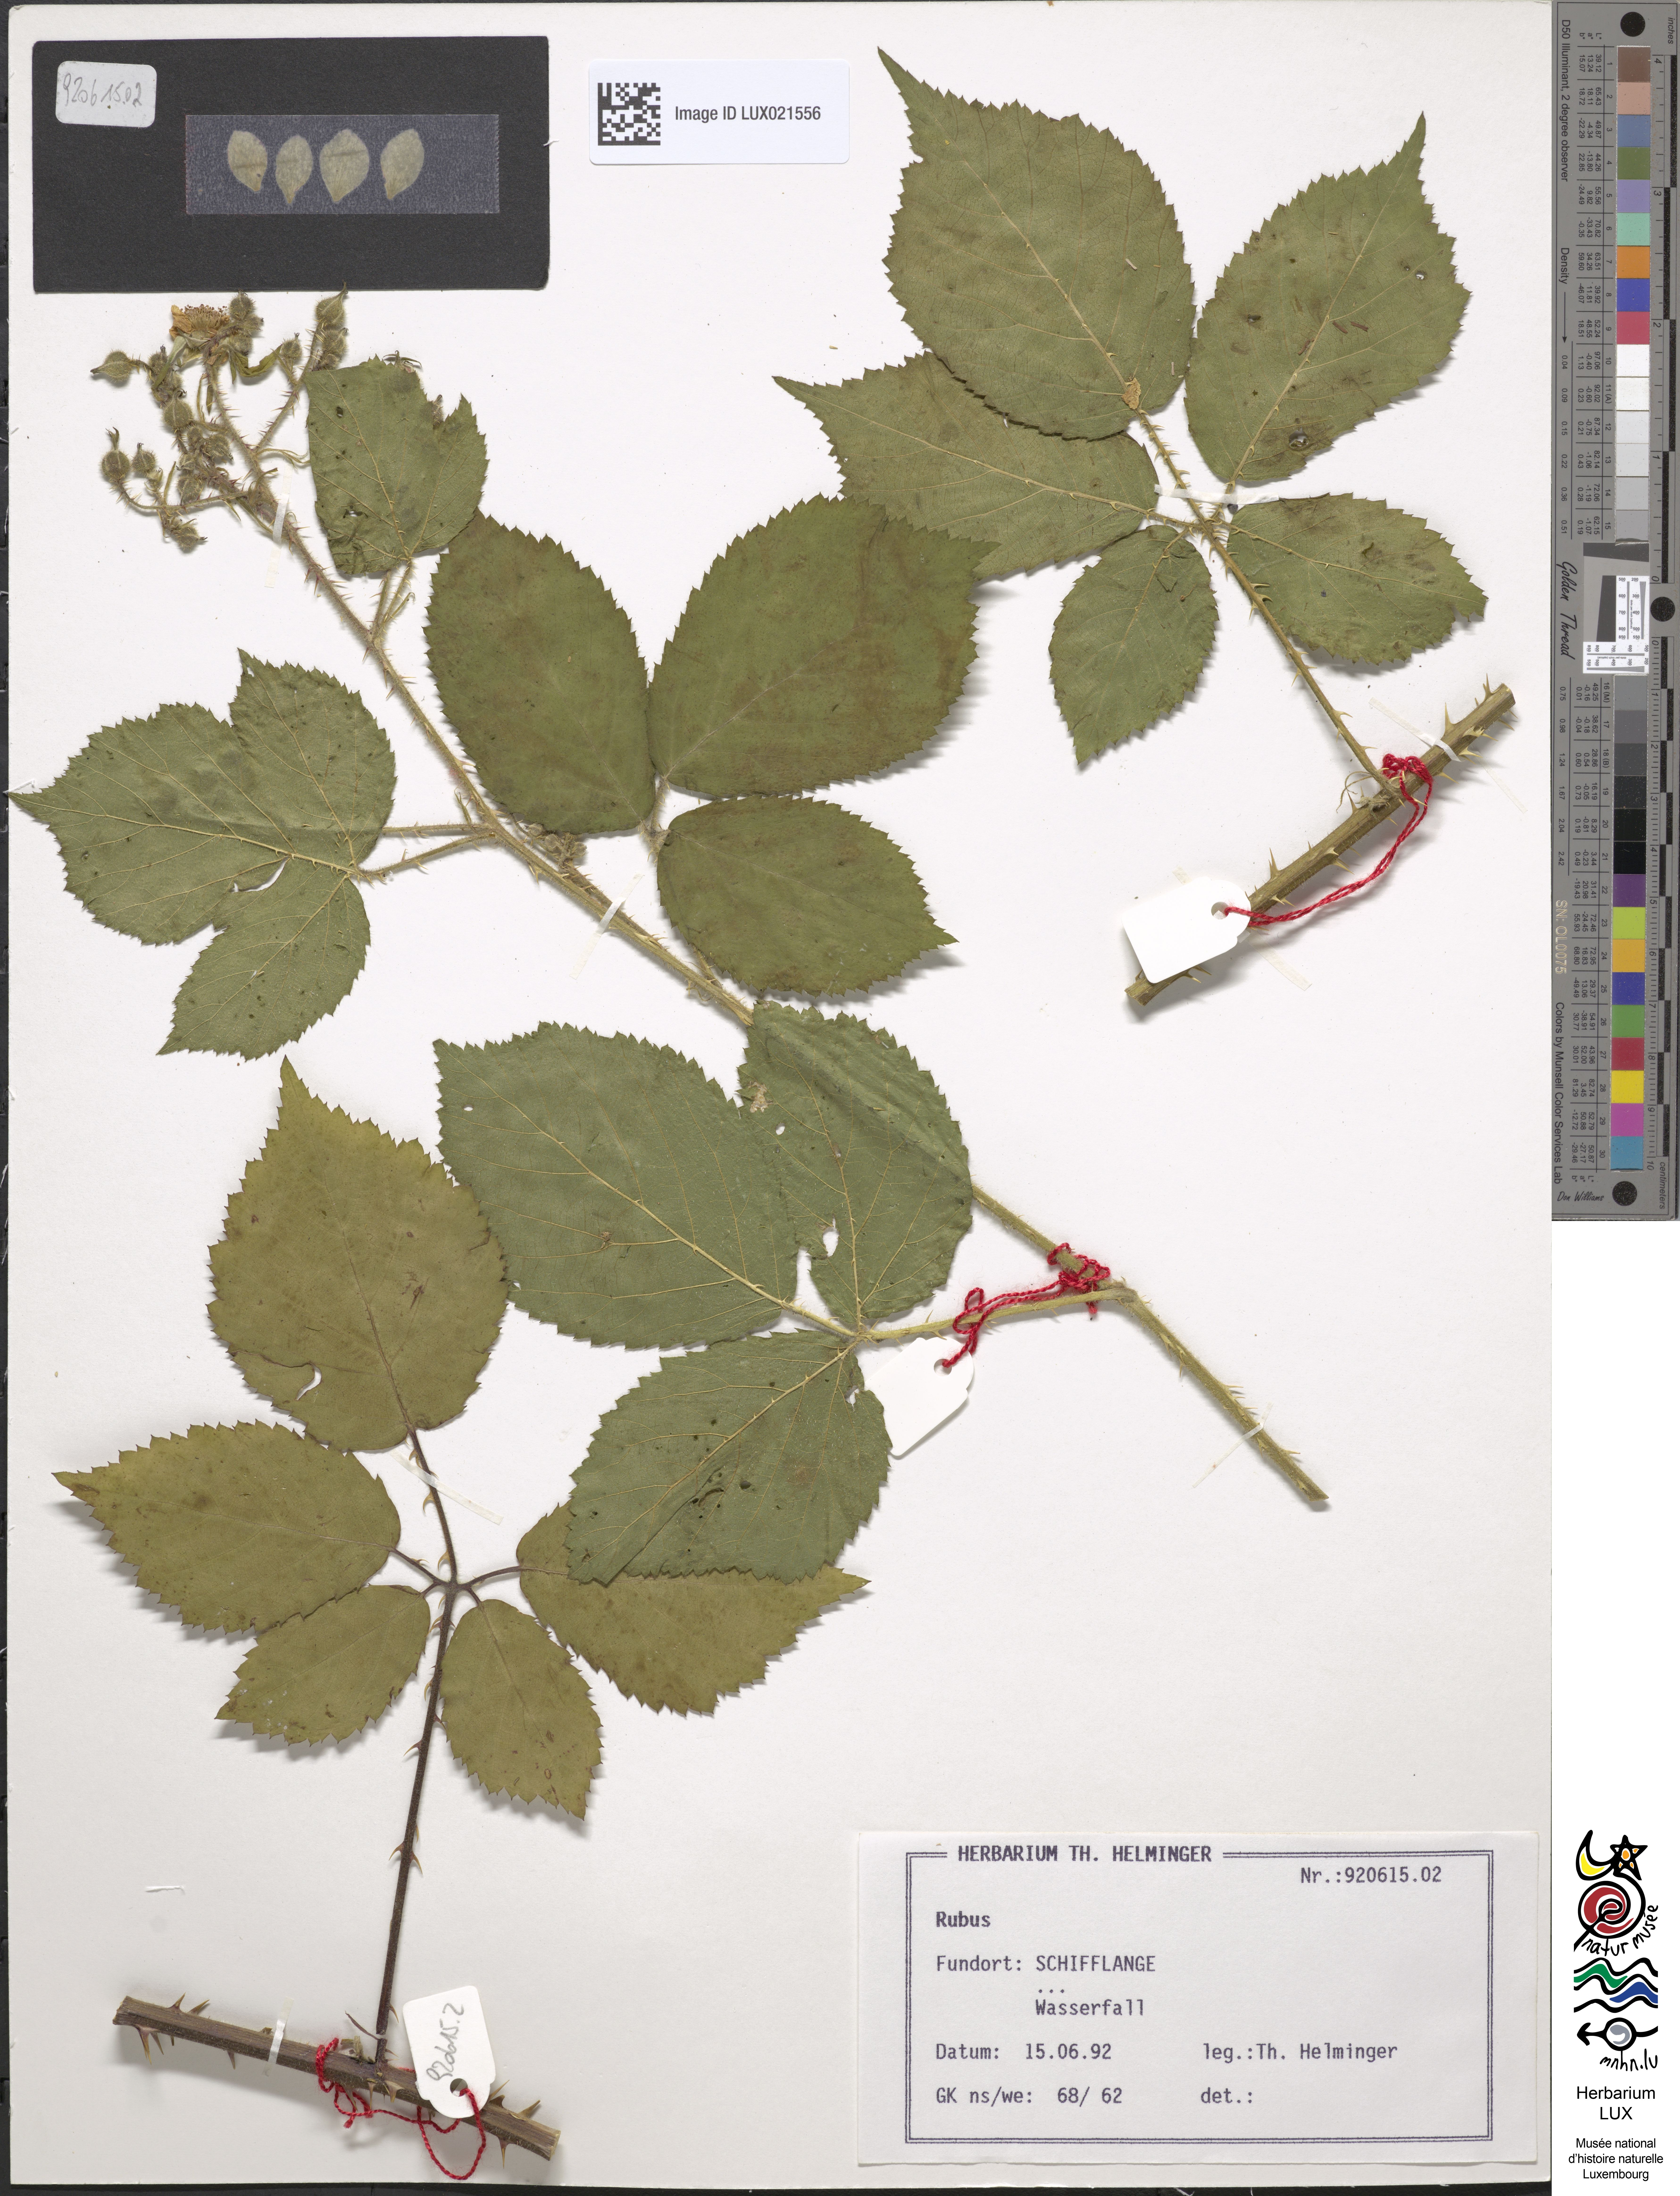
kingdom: Plantae
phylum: Tracheophyta
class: Magnoliopsida
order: Rosales
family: Rosaceae
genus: Rubus
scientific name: Rubus
